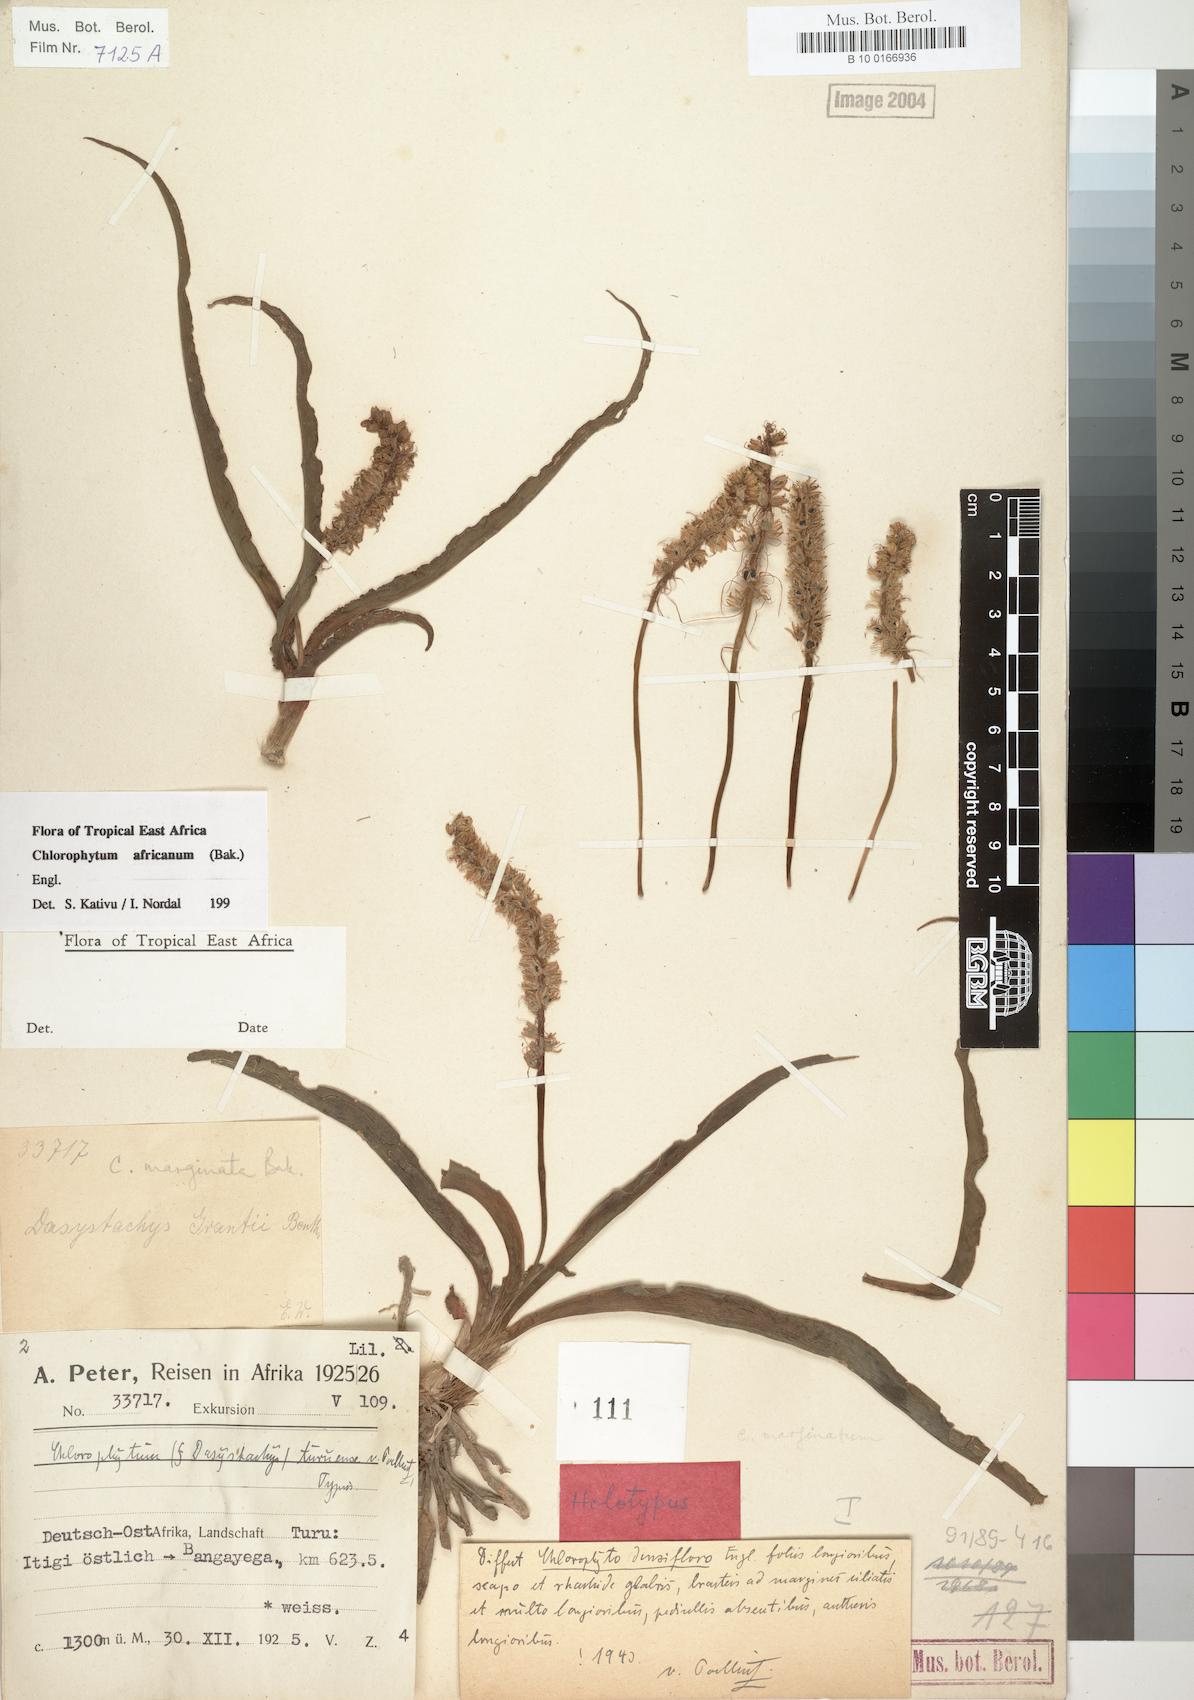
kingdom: Plantae
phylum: Tracheophyta
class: Liliopsida
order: Asparagales
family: Asparagaceae
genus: Chlorophytum
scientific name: Chlorophytum africanum
